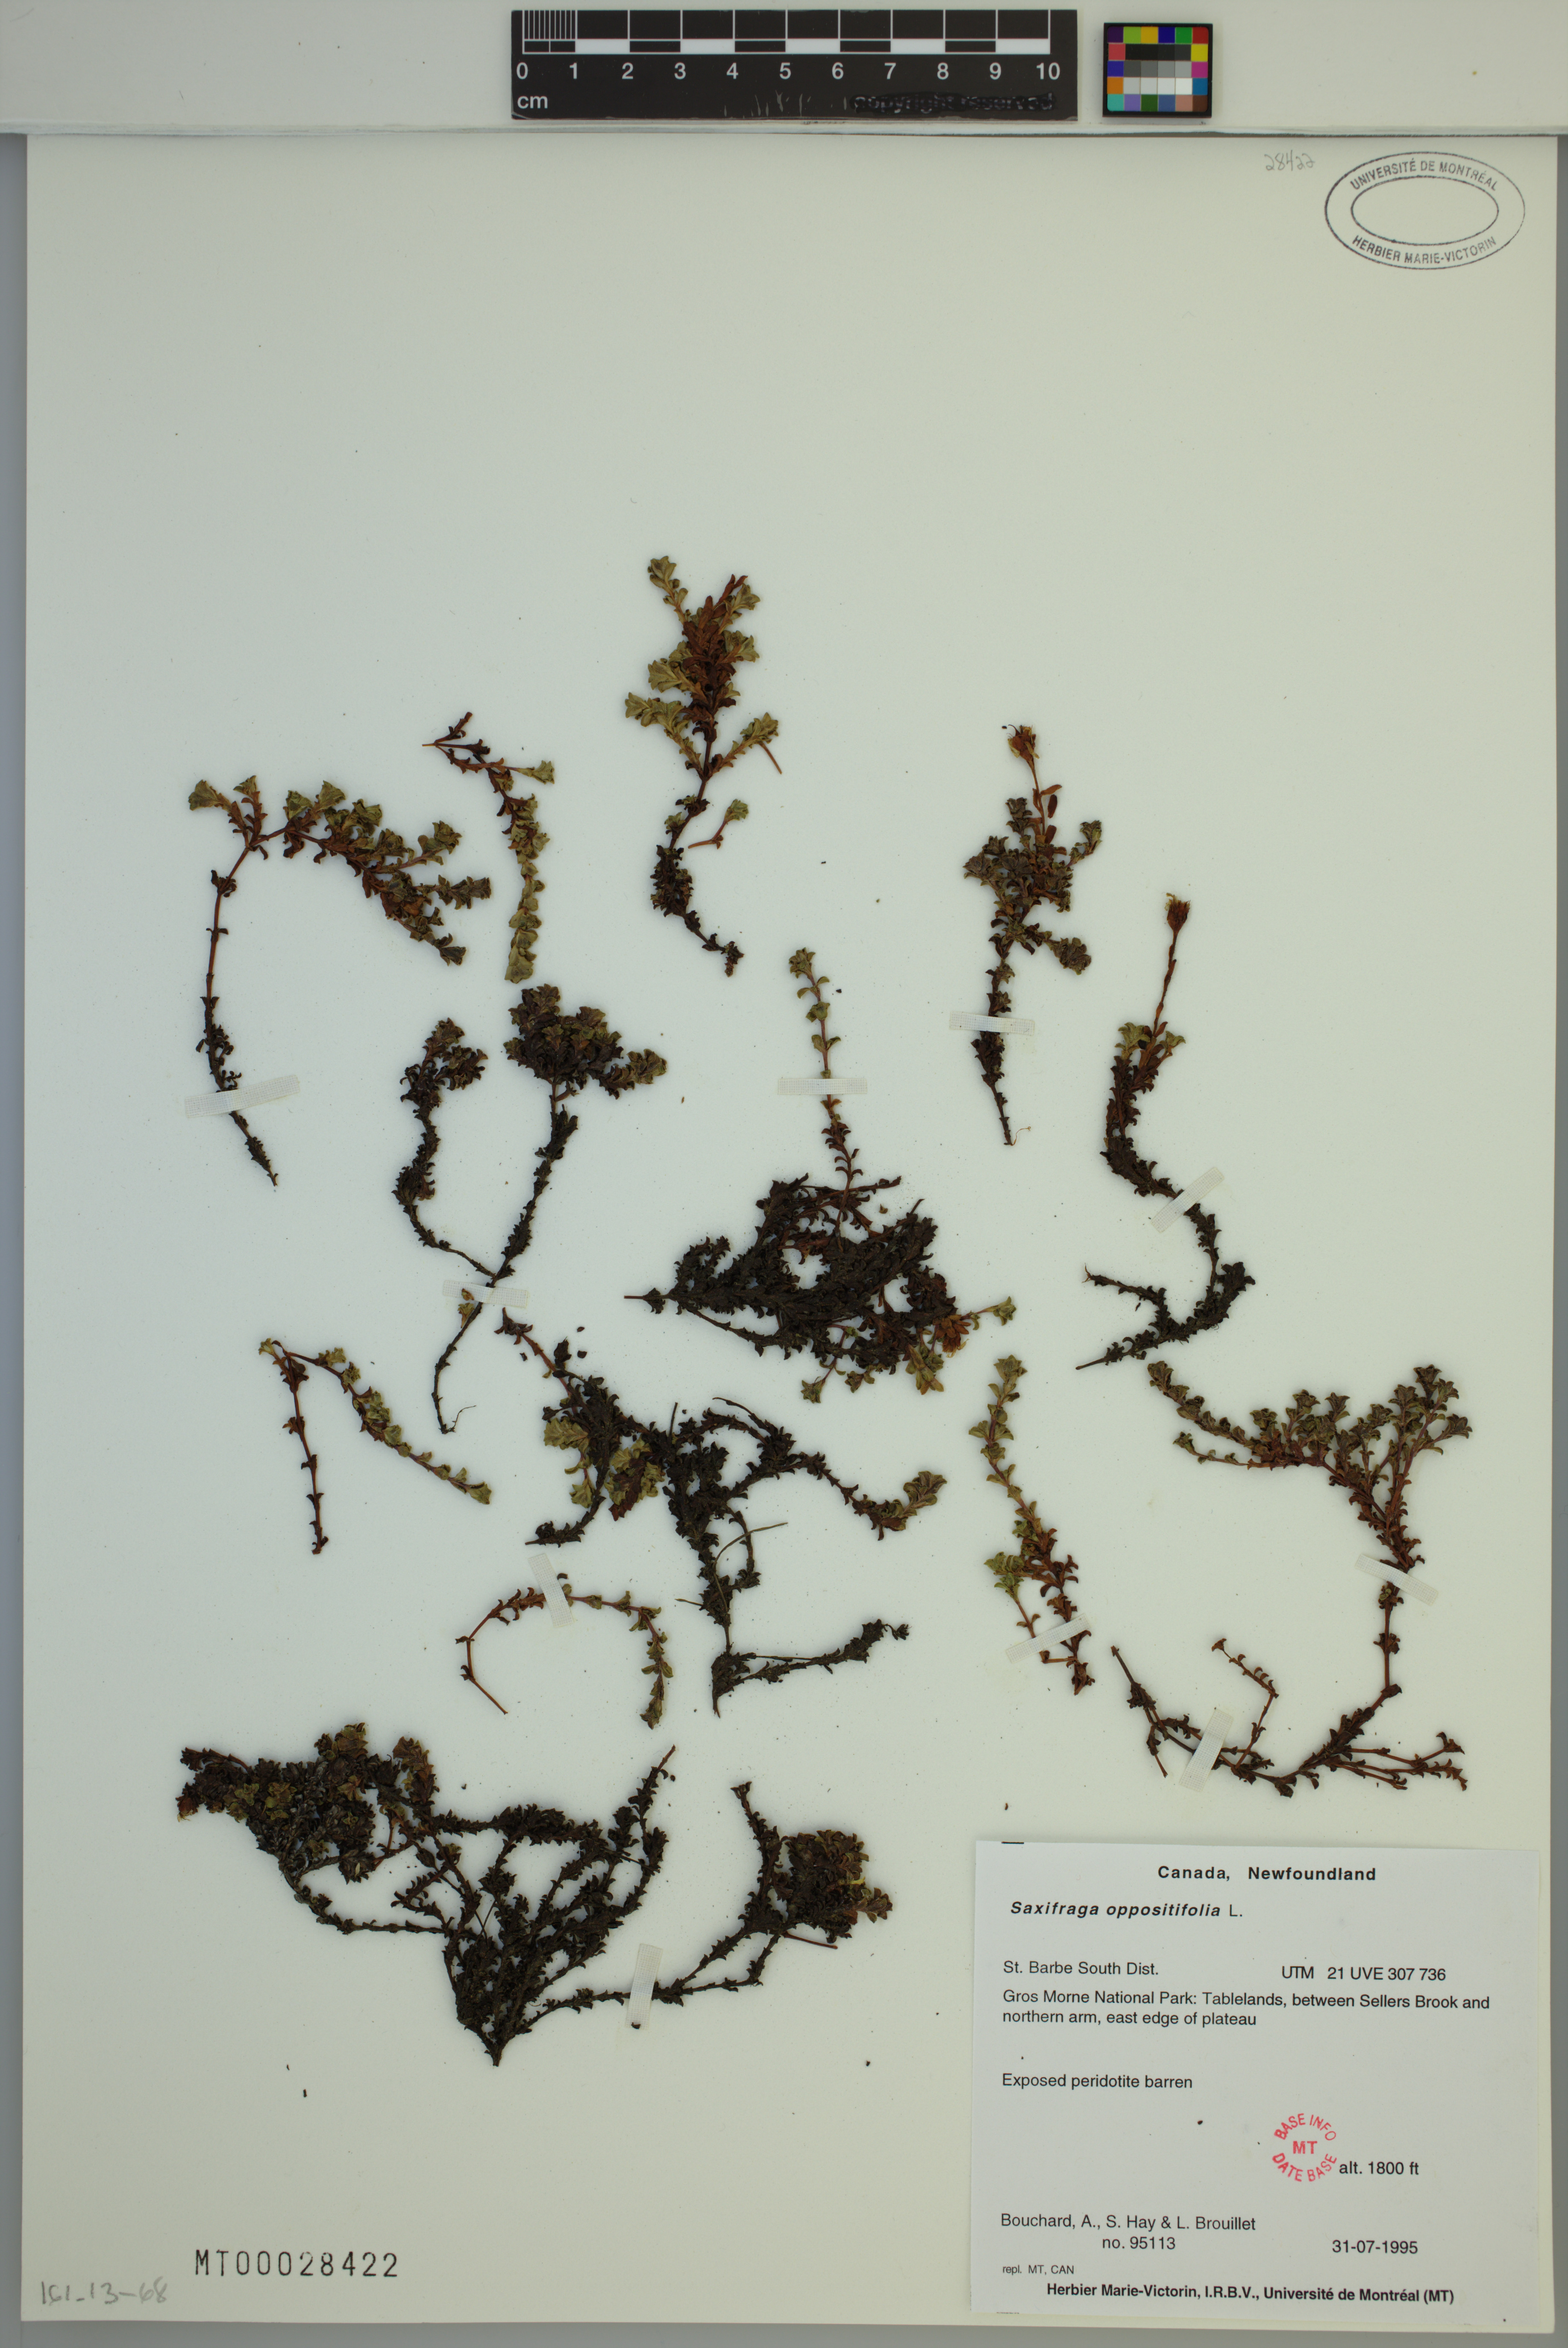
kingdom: Plantae
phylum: Tracheophyta
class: Magnoliopsida
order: Saxifragales
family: Saxifragaceae
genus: Saxifraga
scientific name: Saxifraga oppositifolia
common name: Purple saxifrage
